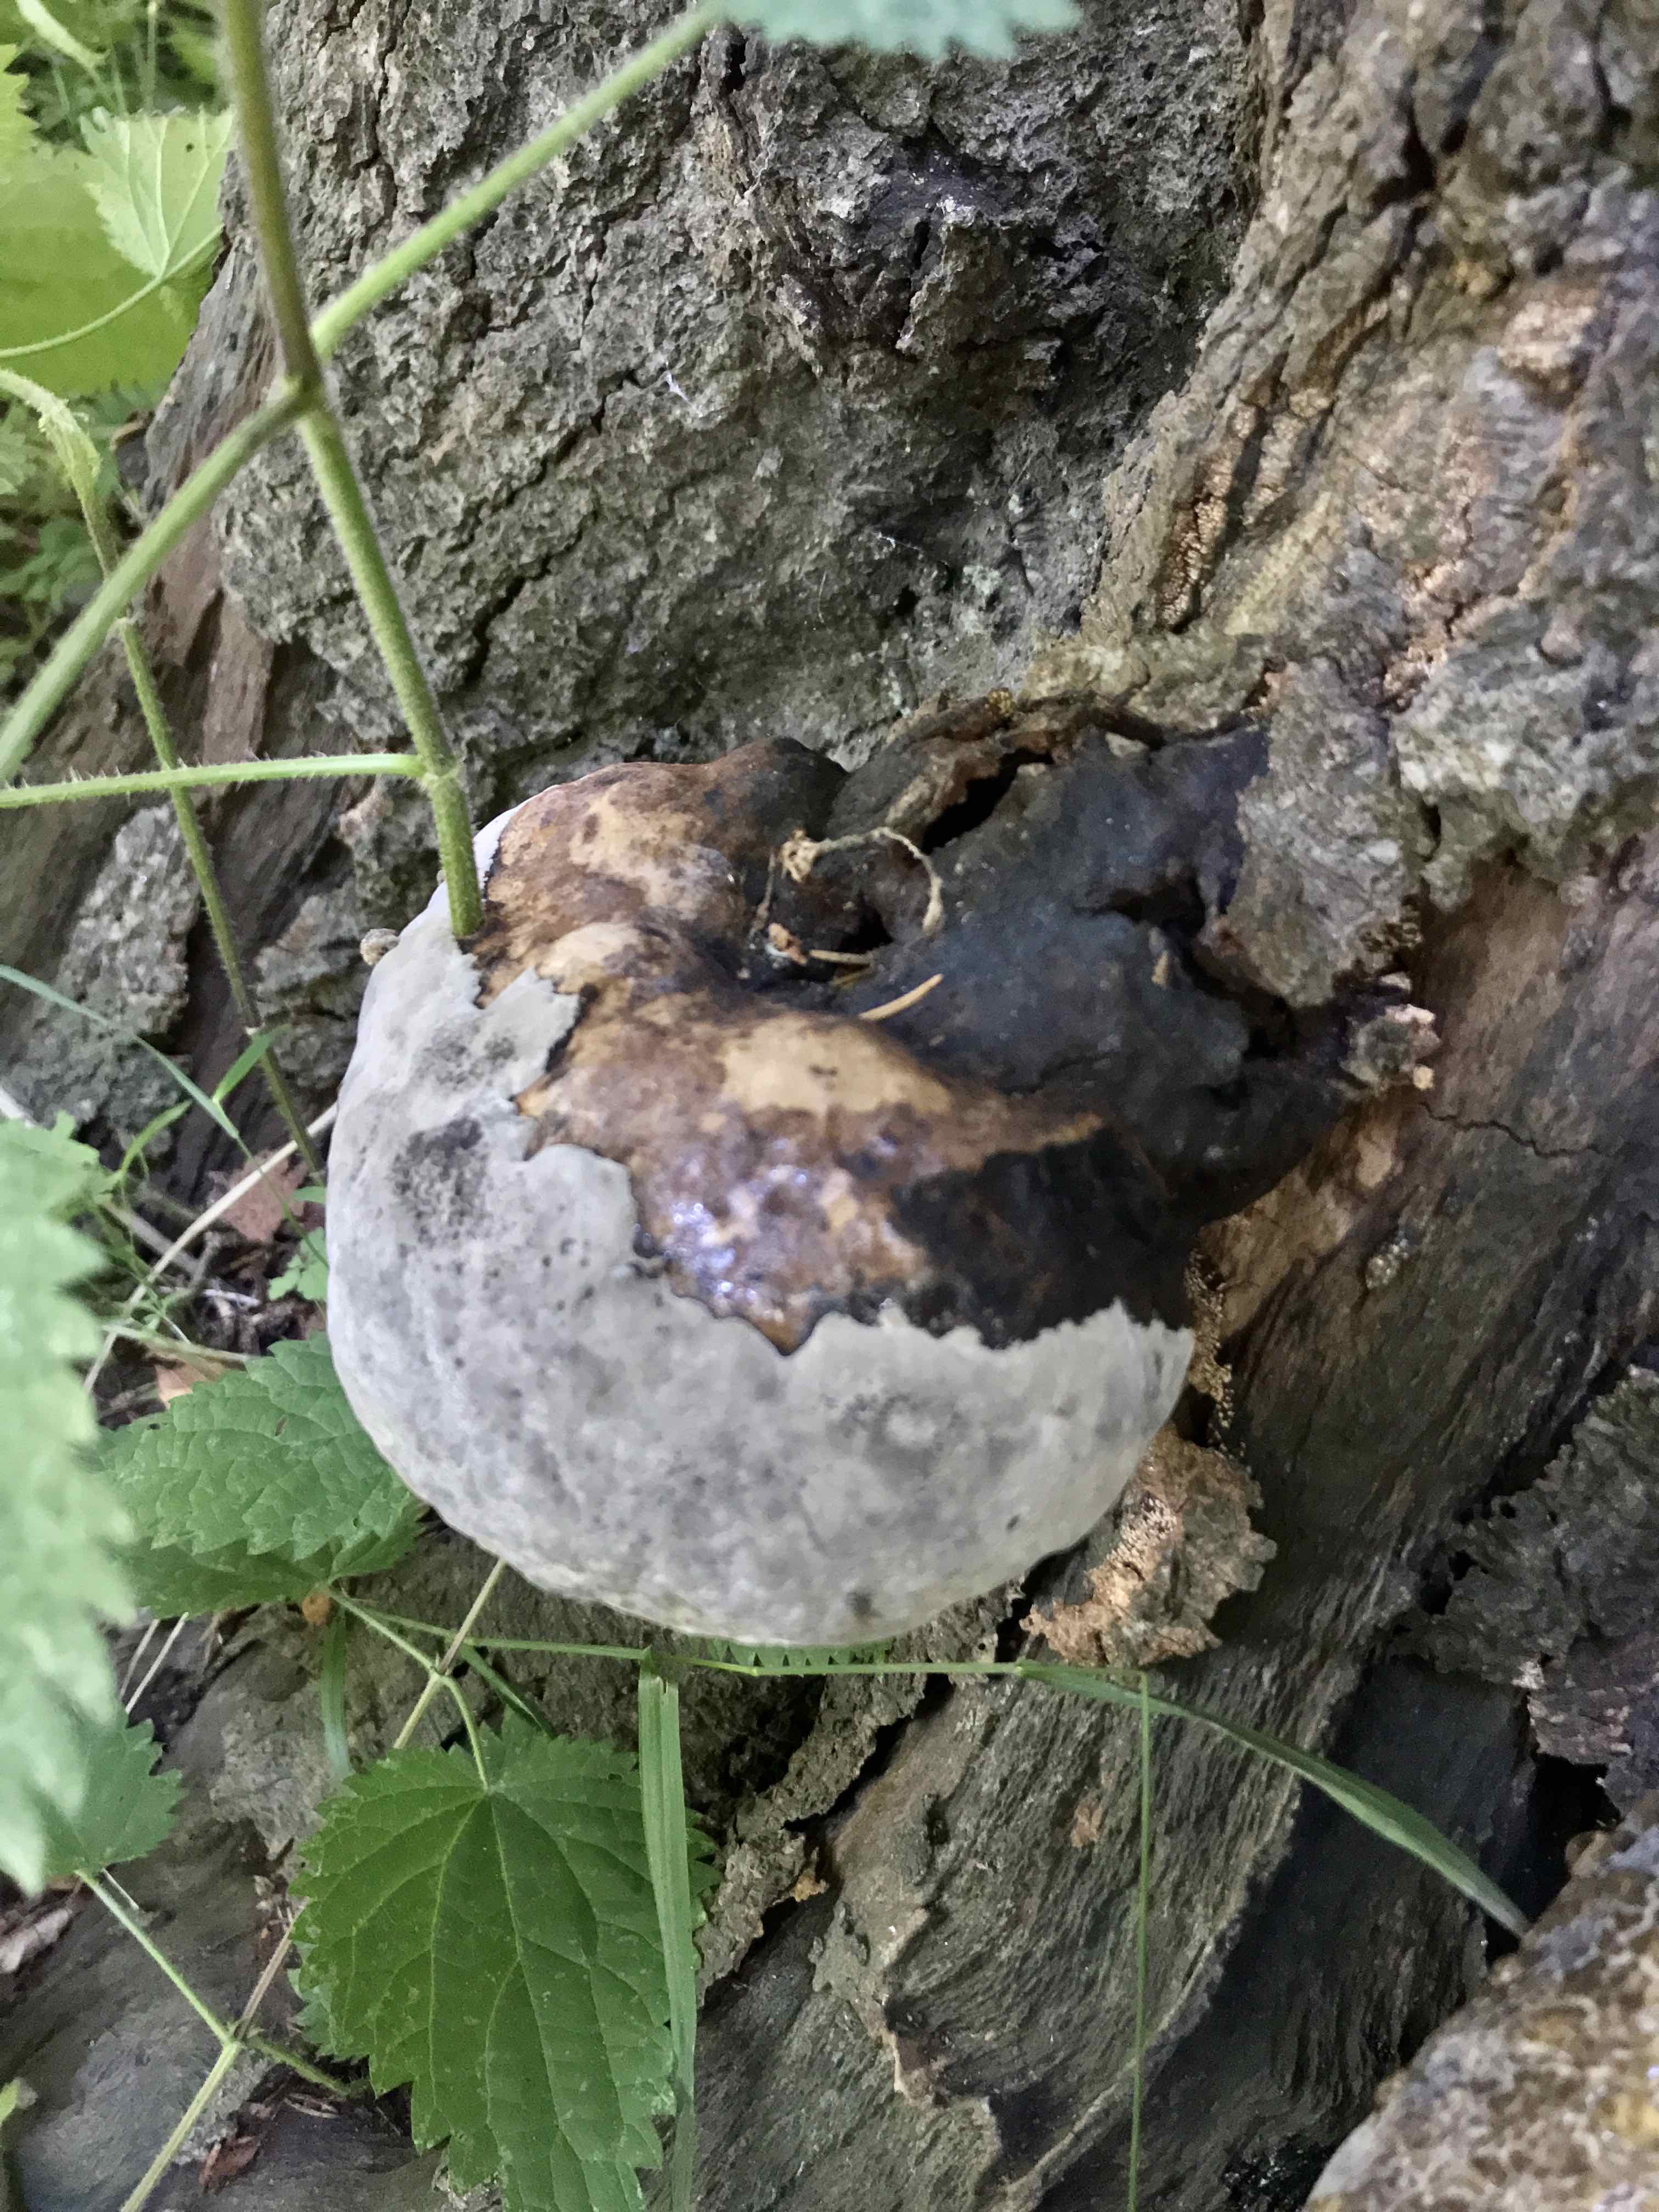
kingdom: Fungi
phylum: Basidiomycota
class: Agaricomycetes
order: Polyporales
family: Polyporaceae
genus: Fomes
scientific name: Fomes fomentarius
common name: tøndersvamp
